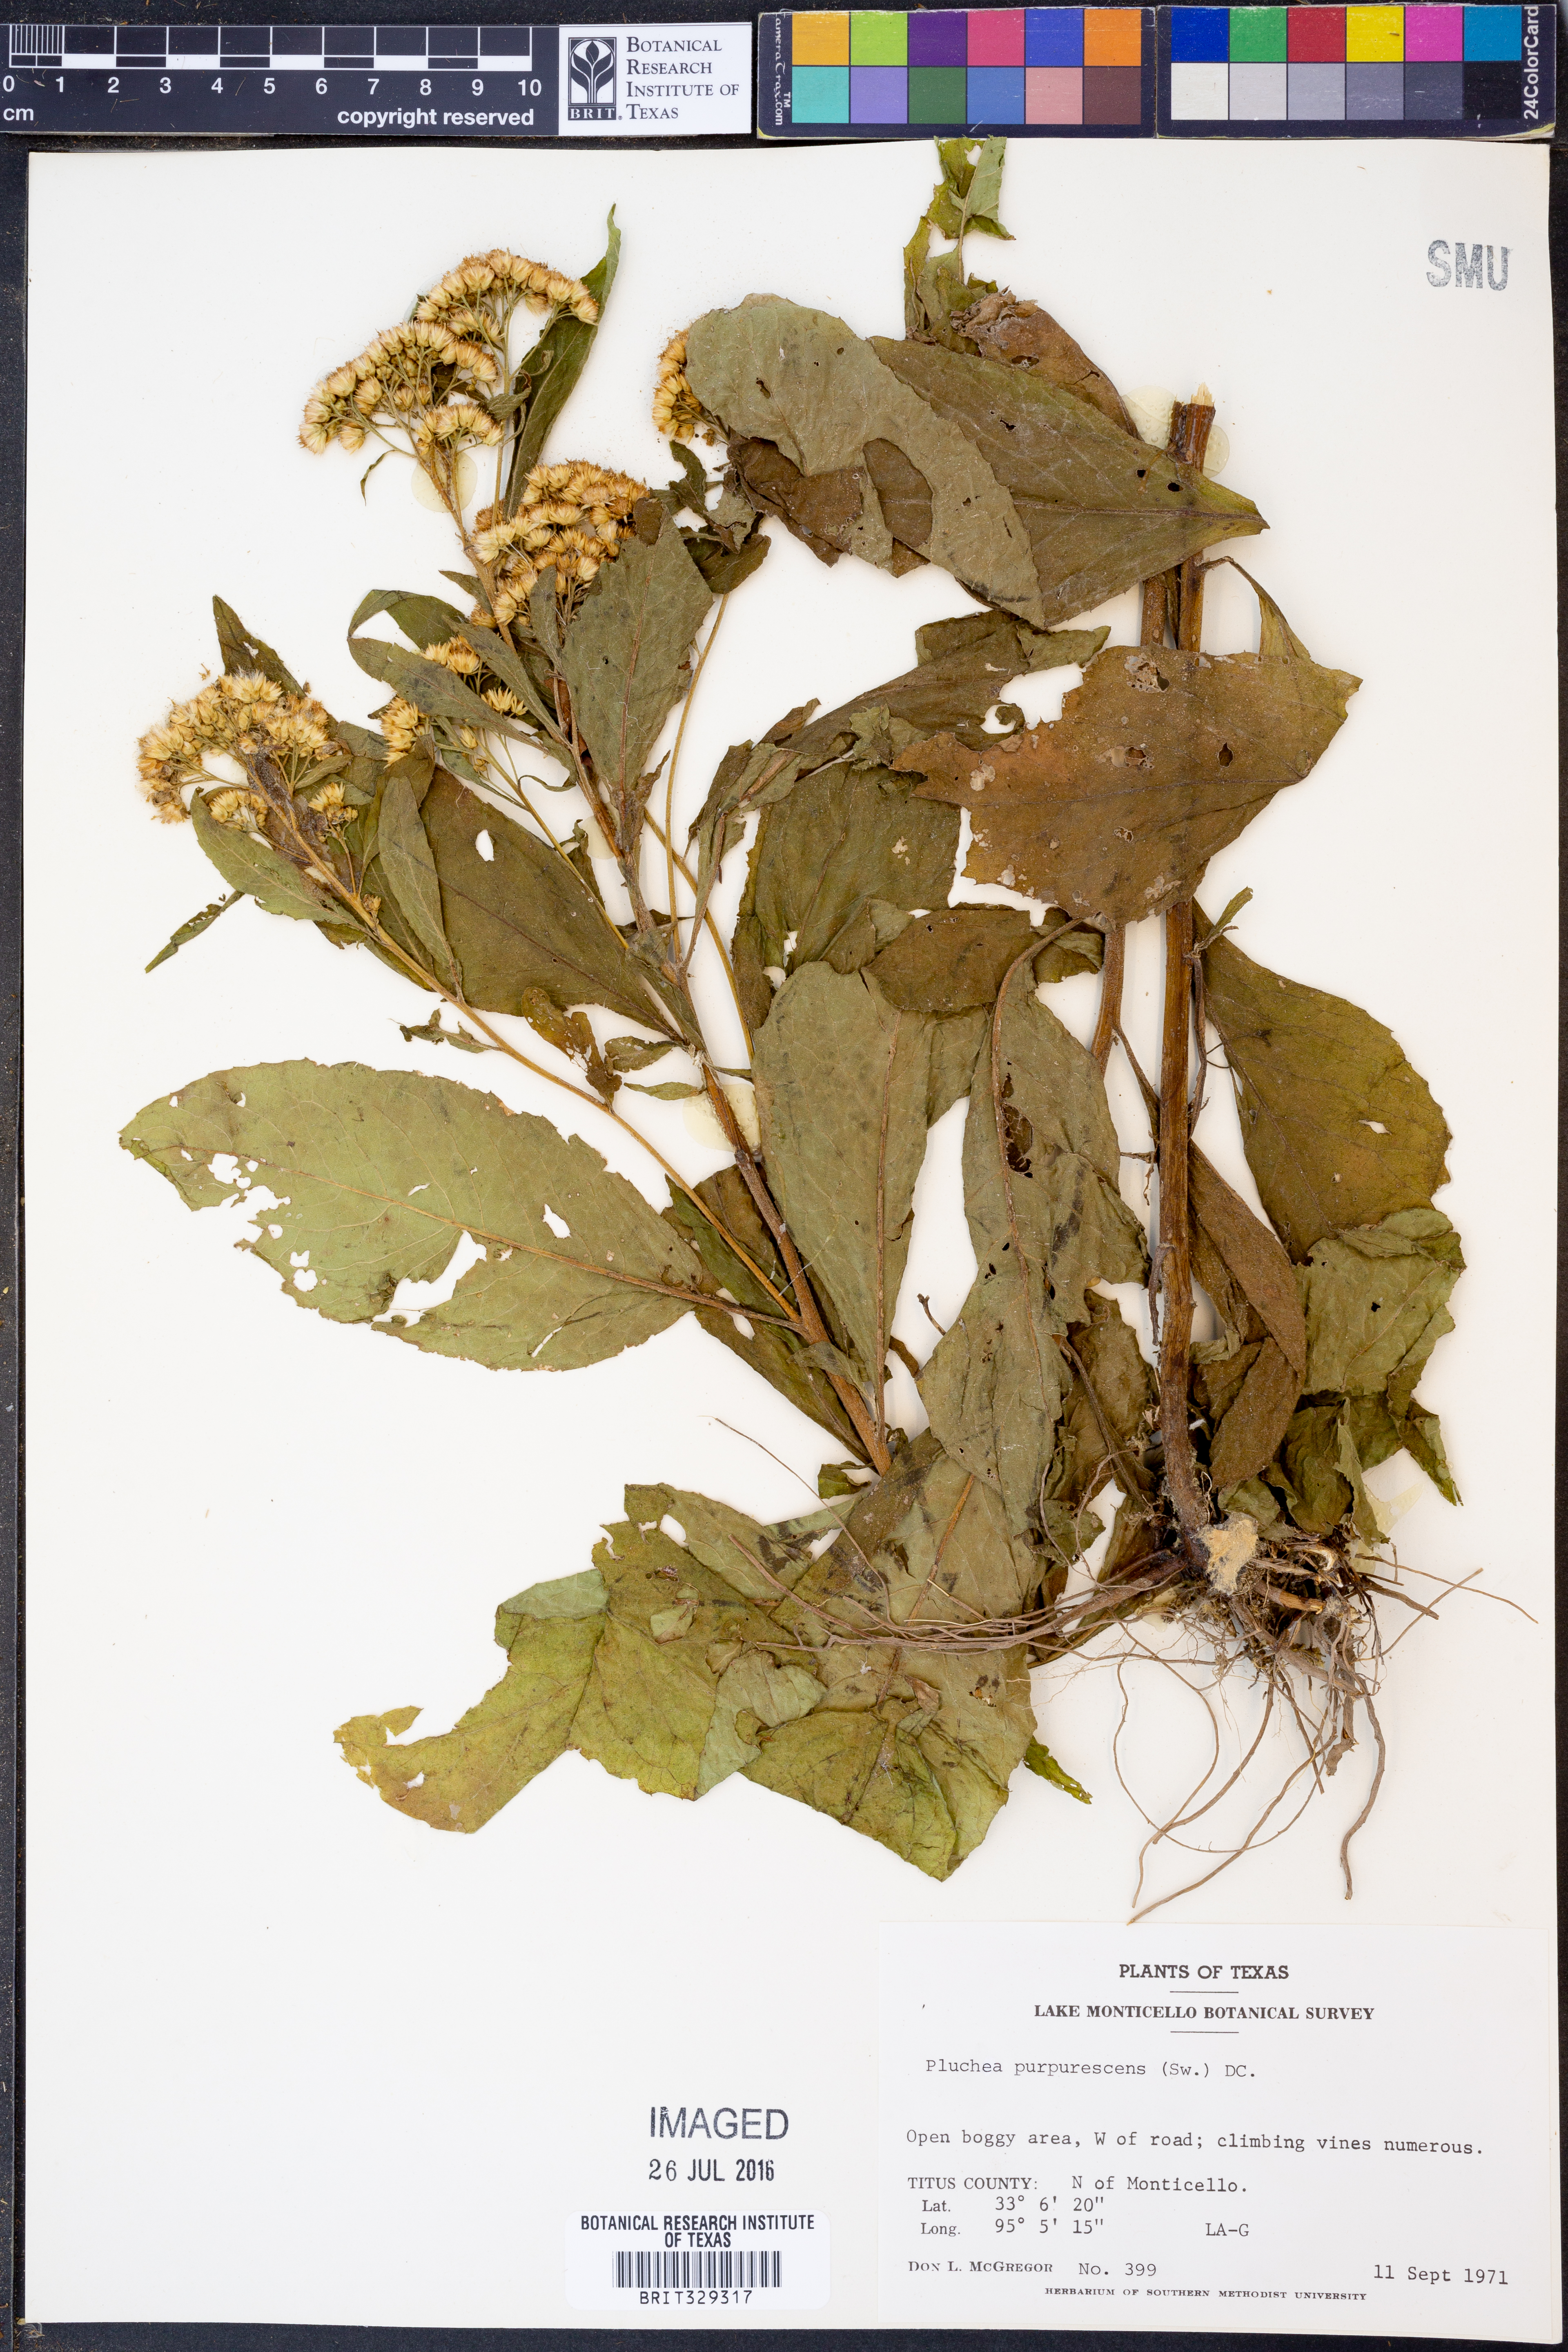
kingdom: Plantae
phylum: Tracheophyta
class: Magnoliopsida
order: Asterales
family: Asteraceae
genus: Pluchea
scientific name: Pluchea odorata
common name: Saltmarsh fleabane
